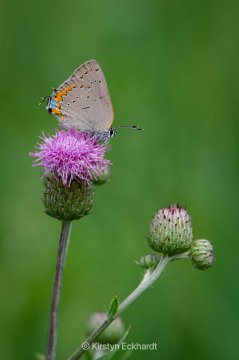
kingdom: Animalia
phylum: Arthropoda
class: Insecta
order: Lepidoptera
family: Lycaenidae
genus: Strymon
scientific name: Strymon acadica
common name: Acadian Hairstreak
